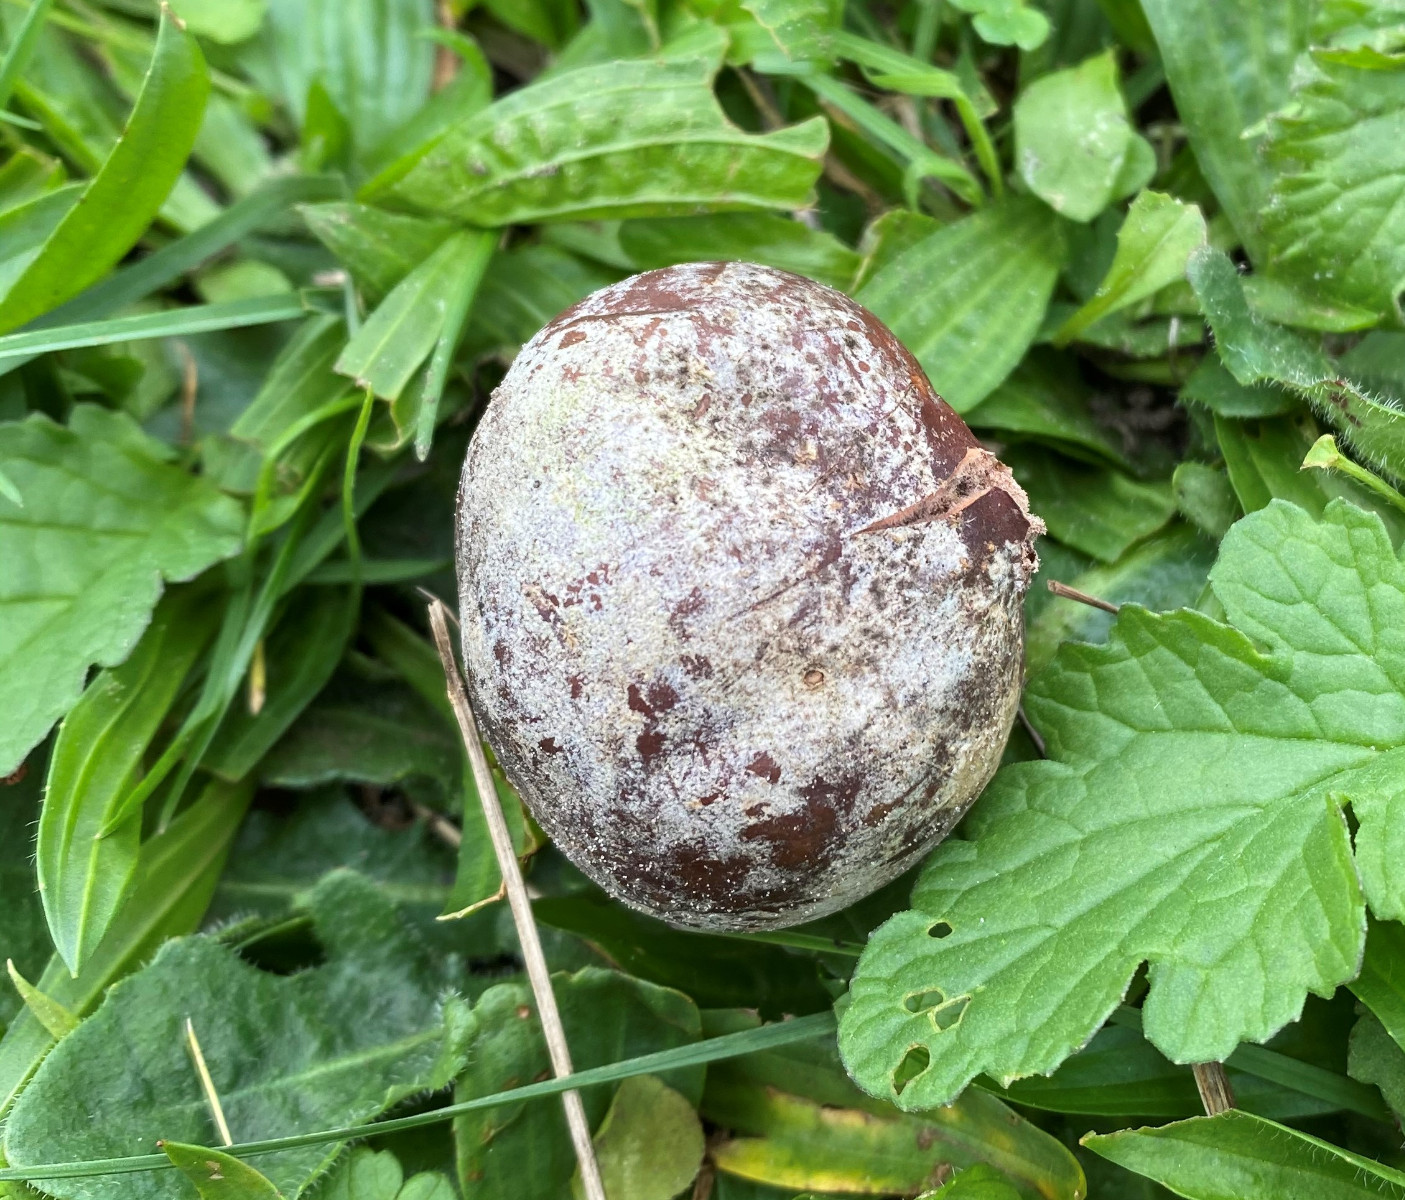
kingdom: Fungi
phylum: Basidiomycota
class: Agaricomycetes
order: Agaricales
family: Lycoperdaceae
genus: Bovista
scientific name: Bovista
